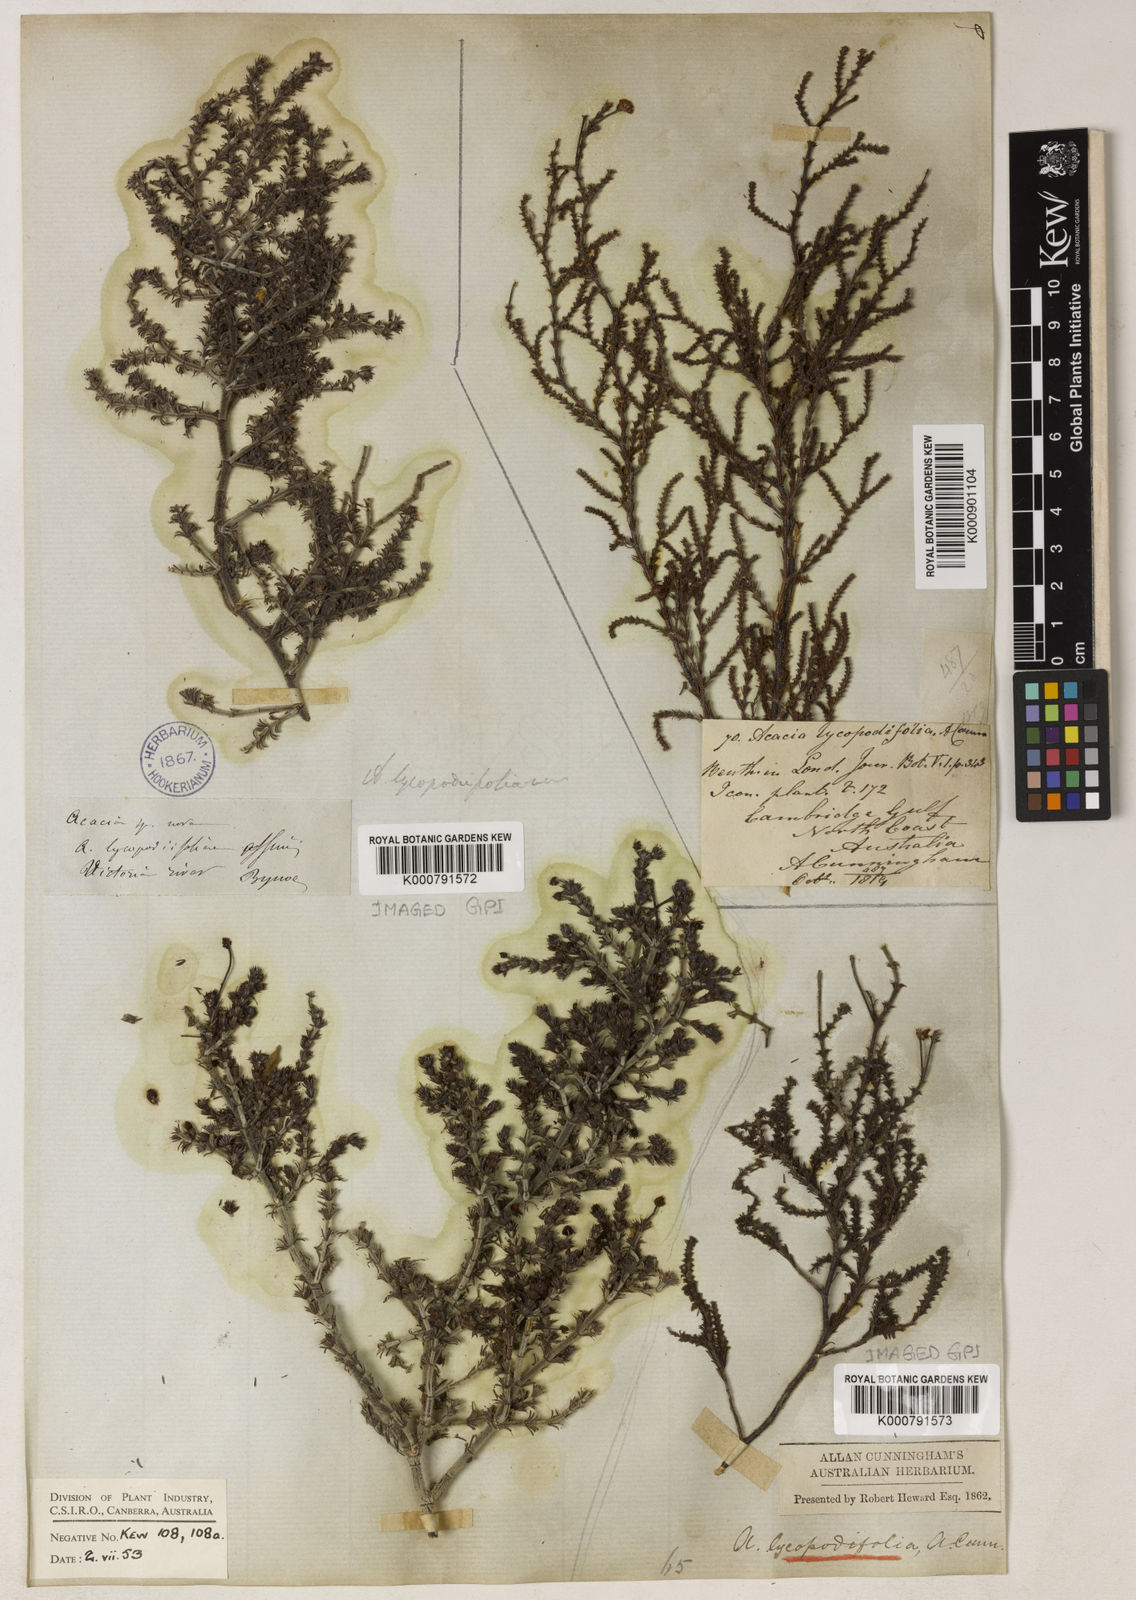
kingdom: Plantae
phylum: Tracheophyta
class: Magnoliopsida
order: Fabales
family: Fabaceae
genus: Acacia
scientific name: Acacia lycopodiifolia
